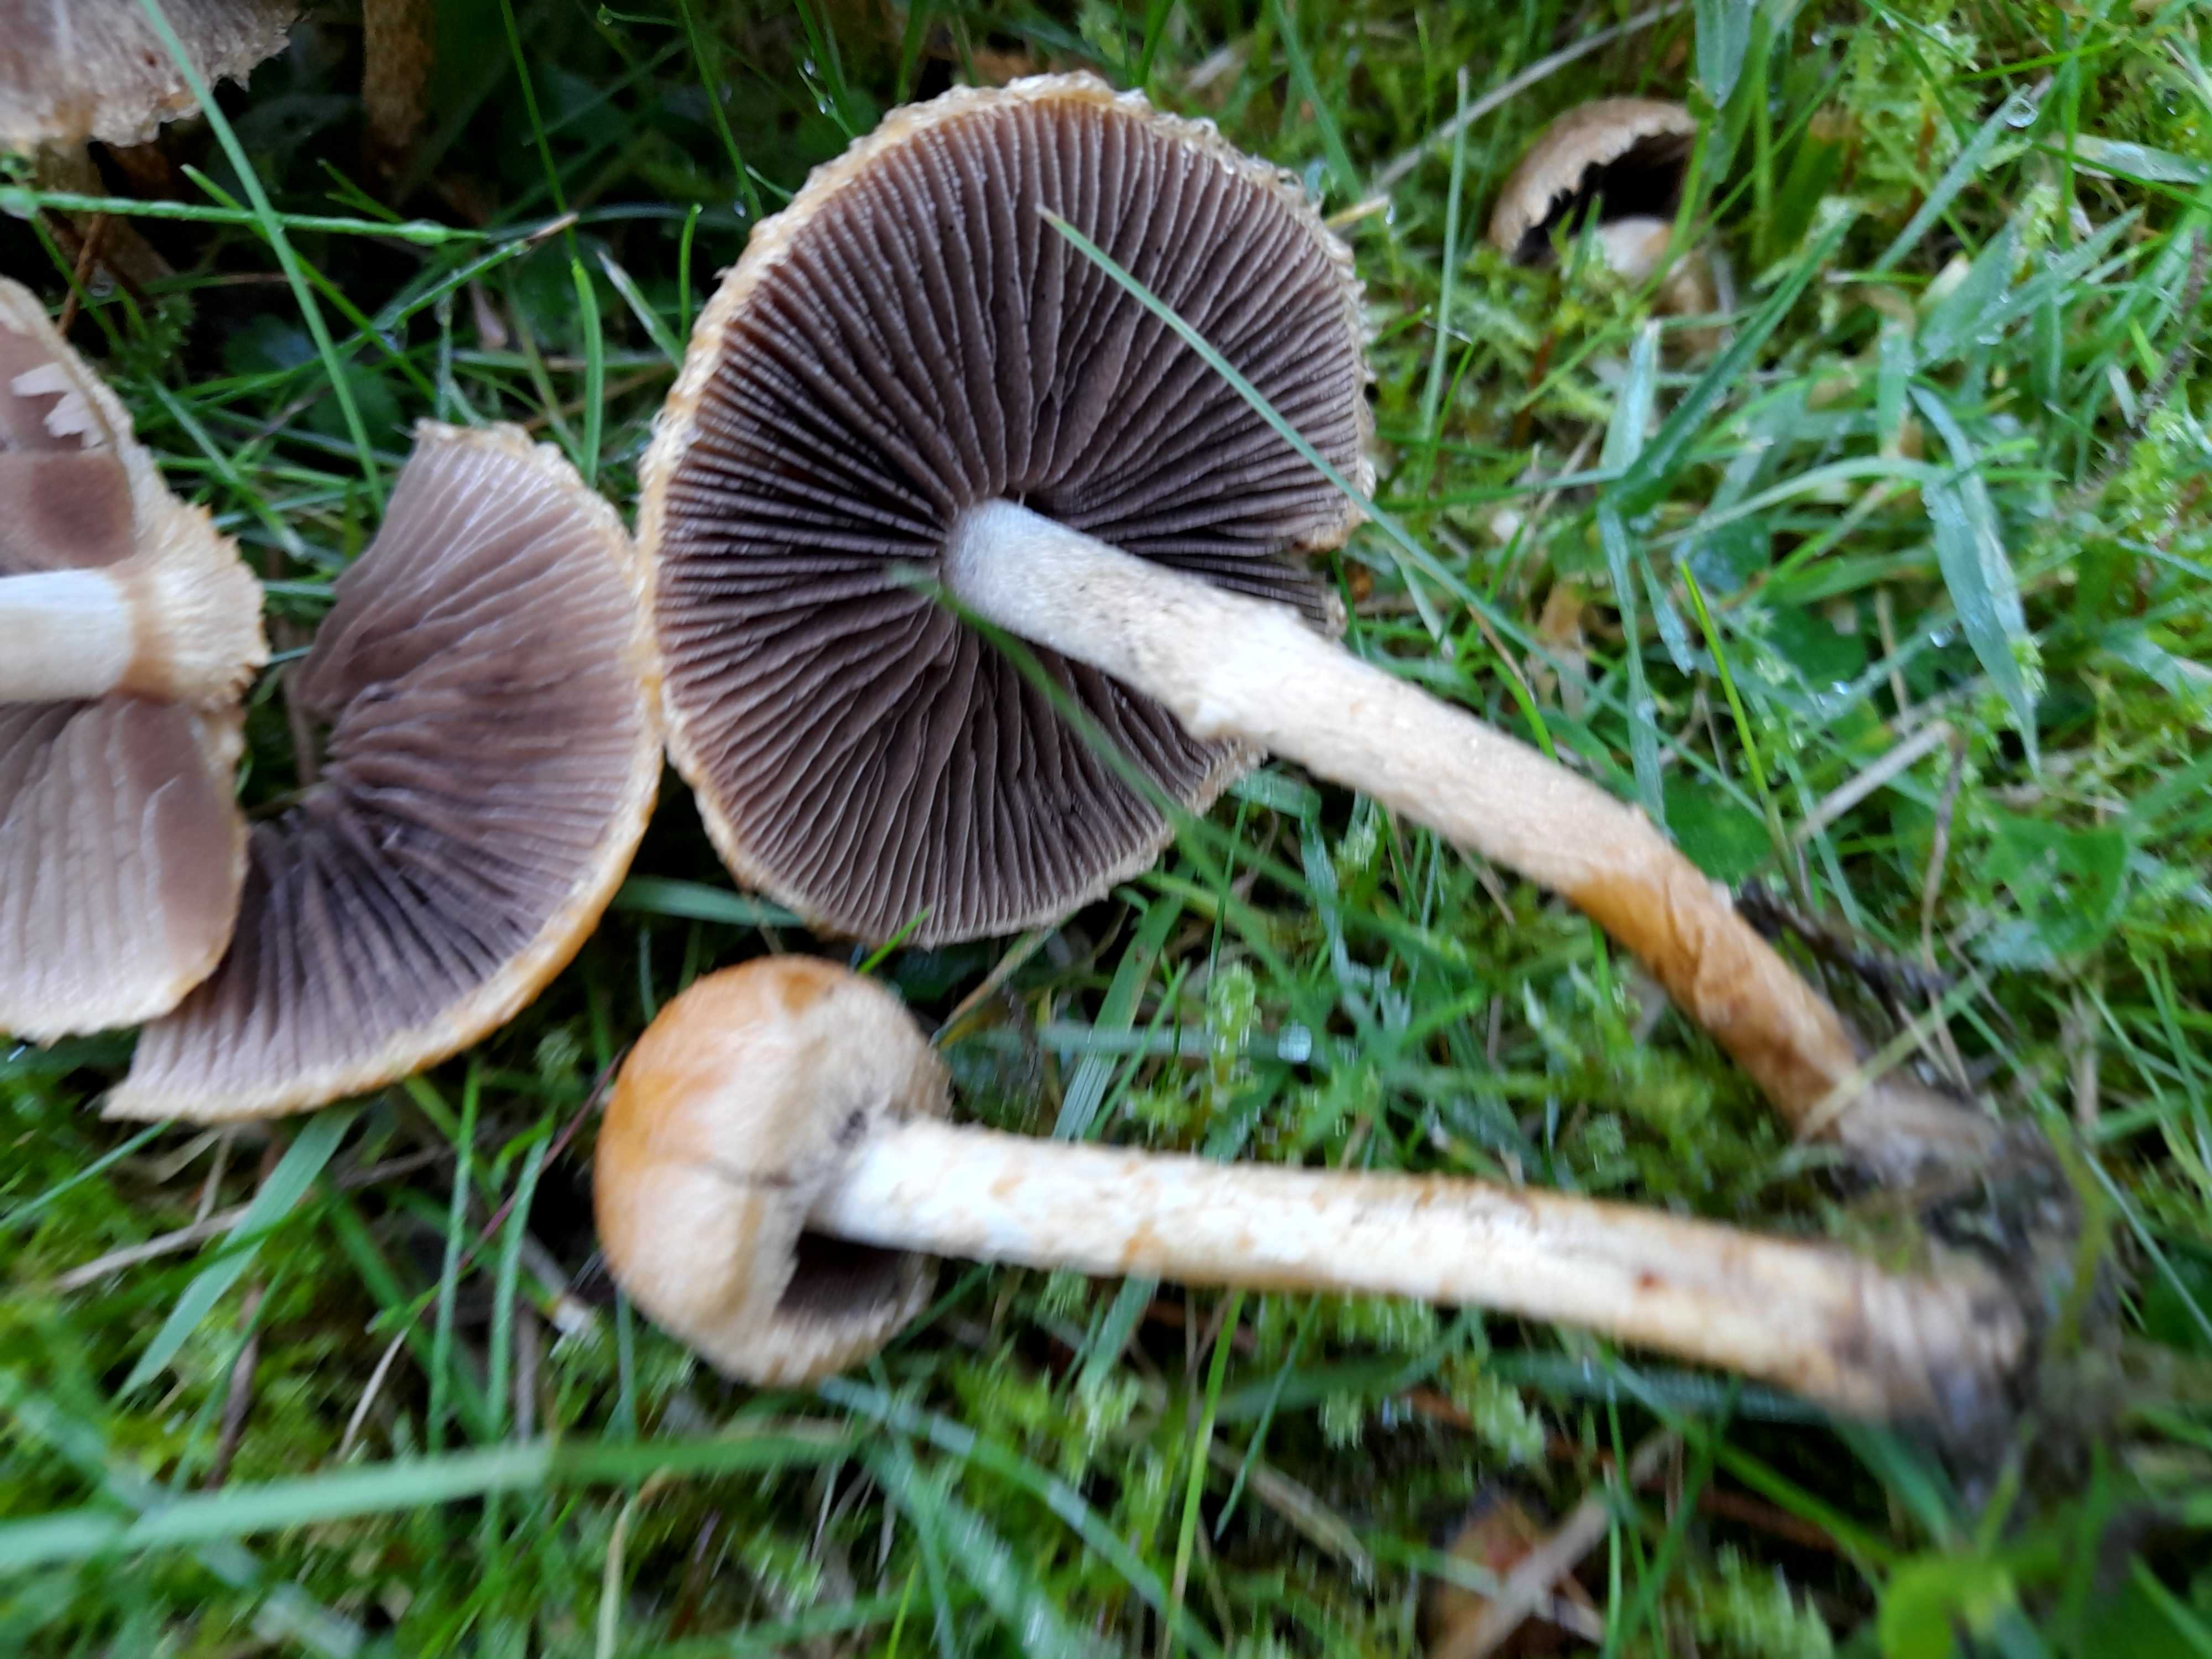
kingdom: Fungi
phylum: Basidiomycota
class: Agaricomycetes
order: Agaricales
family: Psathyrellaceae
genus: Lacrymaria
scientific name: Lacrymaria lacrymabunda
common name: grædende mørkhat
